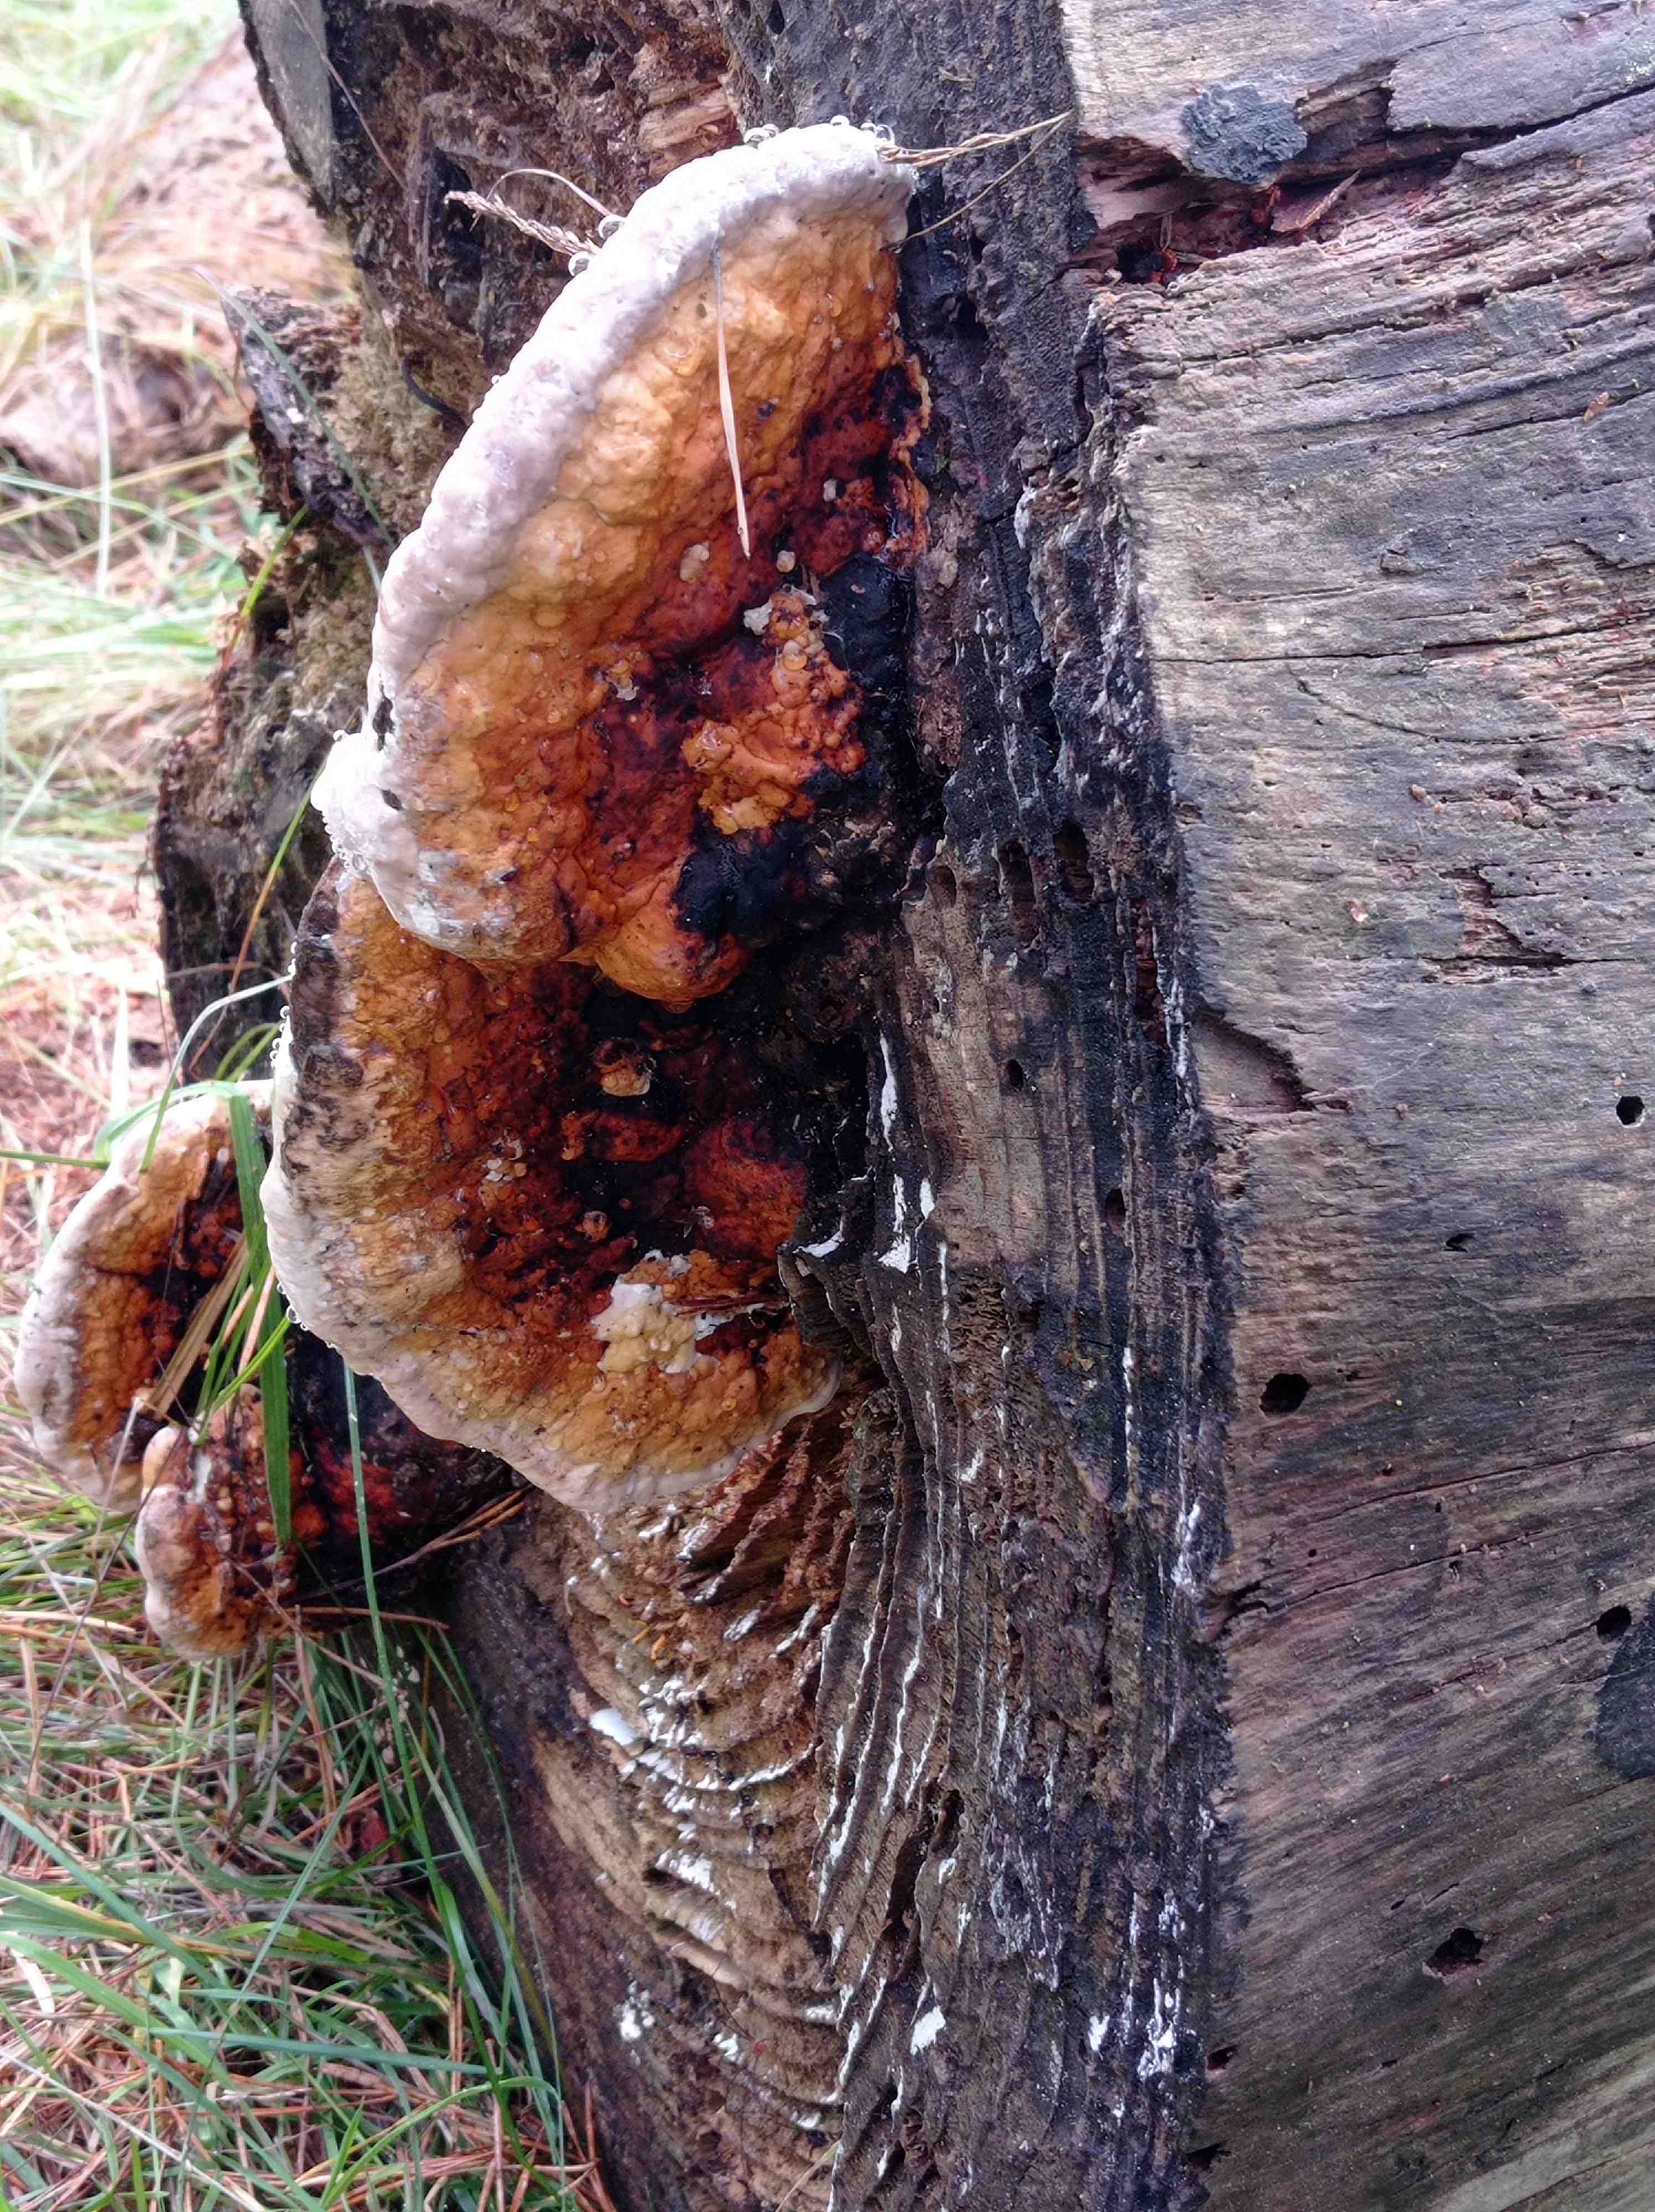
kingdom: Fungi
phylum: Basidiomycota
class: Agaricomycetes
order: Polyporales
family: Fomitopsidaceae
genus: Fomitopsis
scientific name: Fomitopsis pinicola
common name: randbæltet hovporesvamp
